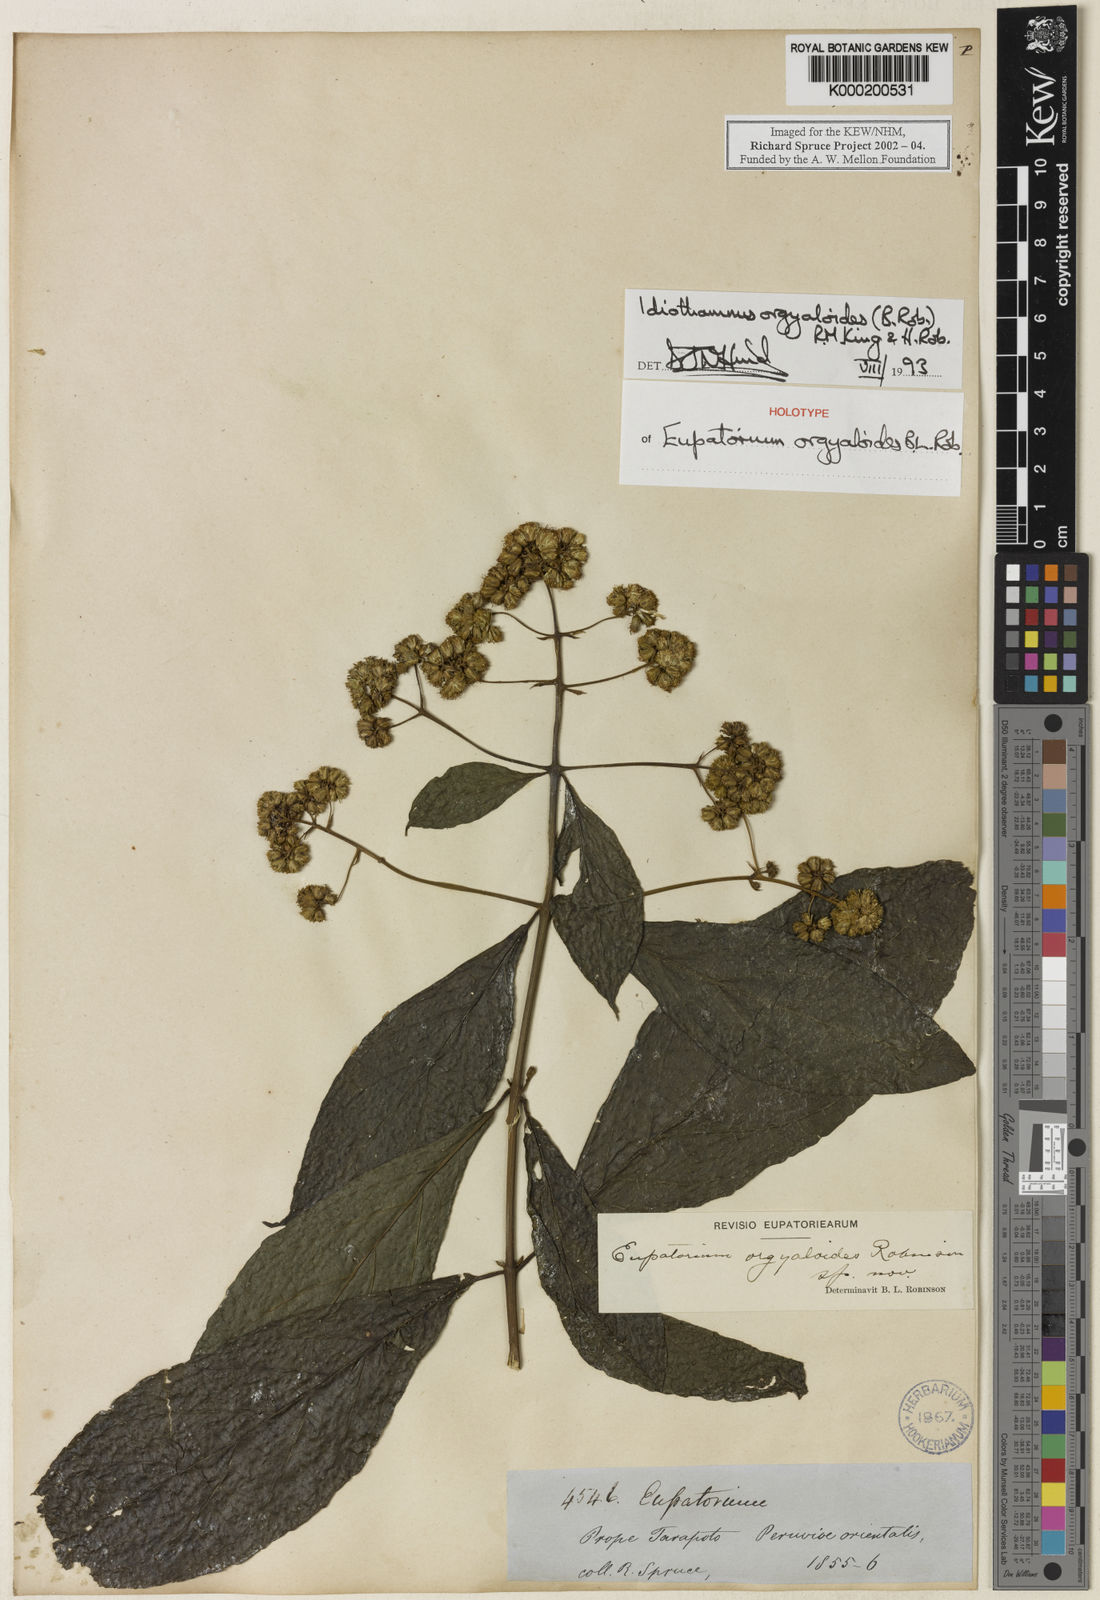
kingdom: Plantae
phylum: Tracheophyta
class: Magnoliopsida
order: Asterales
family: Asteraceae
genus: Idiothamnus
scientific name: Idiothamnus orgyaloides
